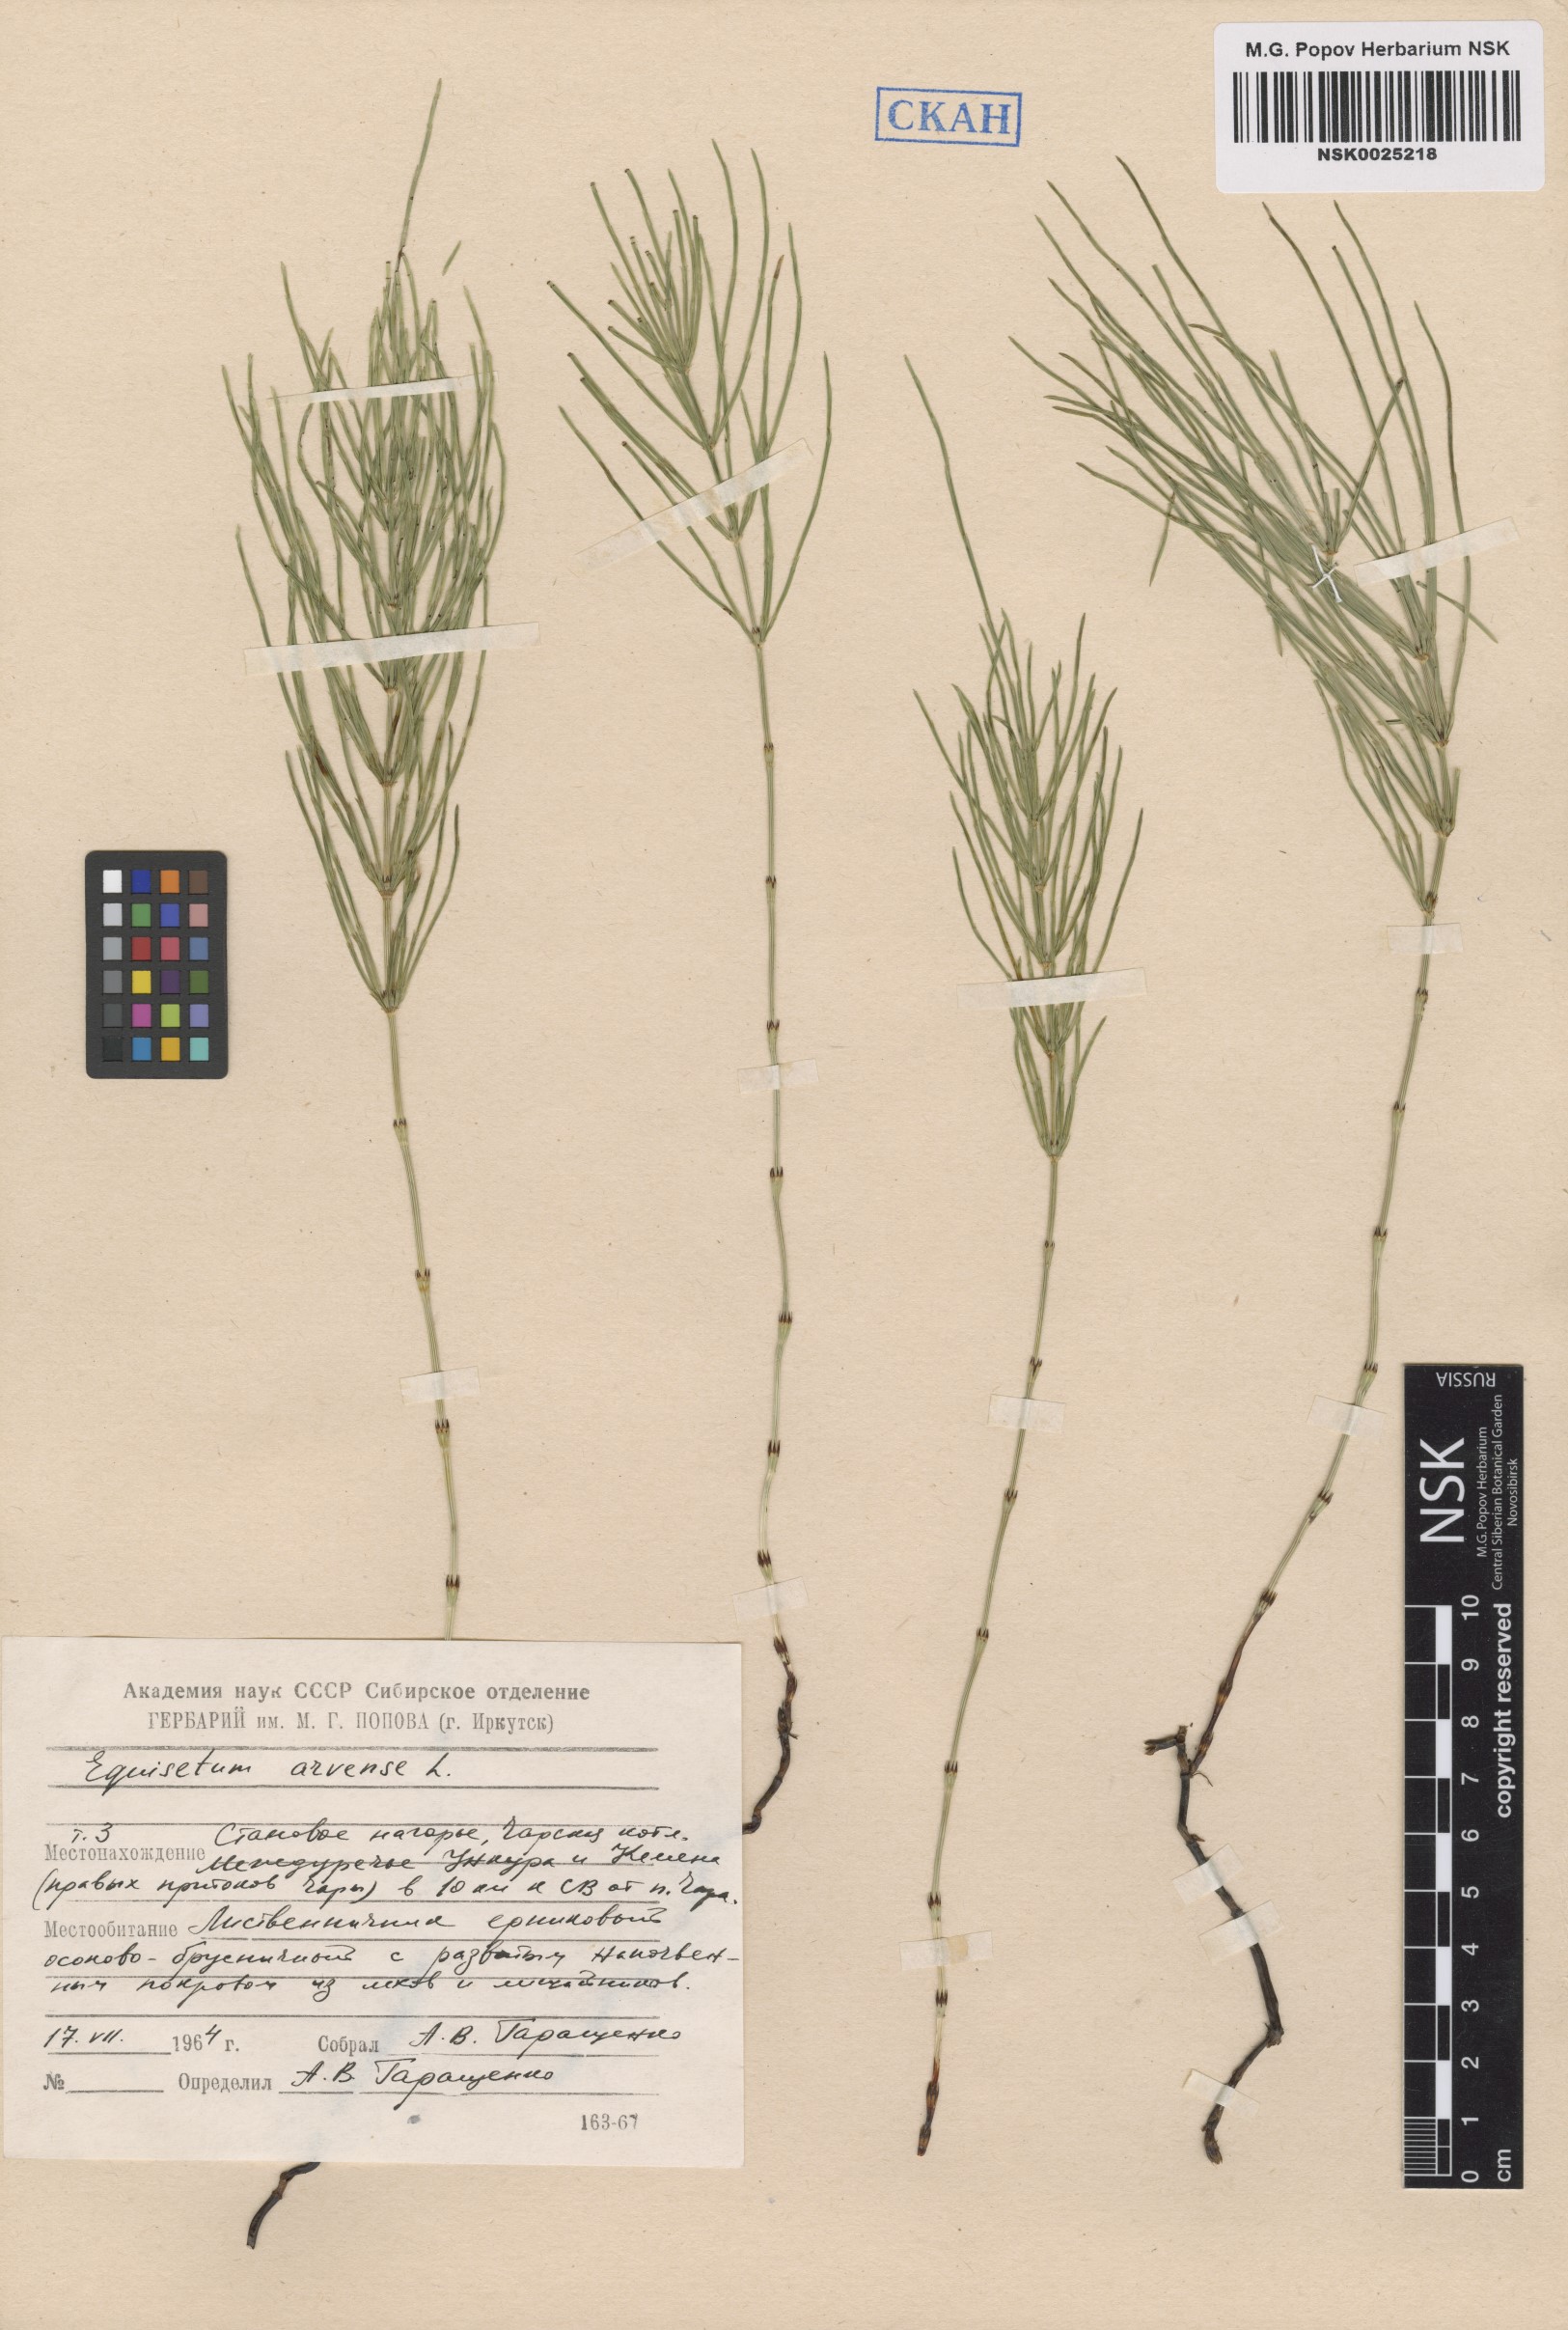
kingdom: Plantae
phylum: Tracheophyta
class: Polypodiopsida
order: Equisetales
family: Equisetaceae
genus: Equisetum
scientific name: Equisetum arvense
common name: Field horsetail
